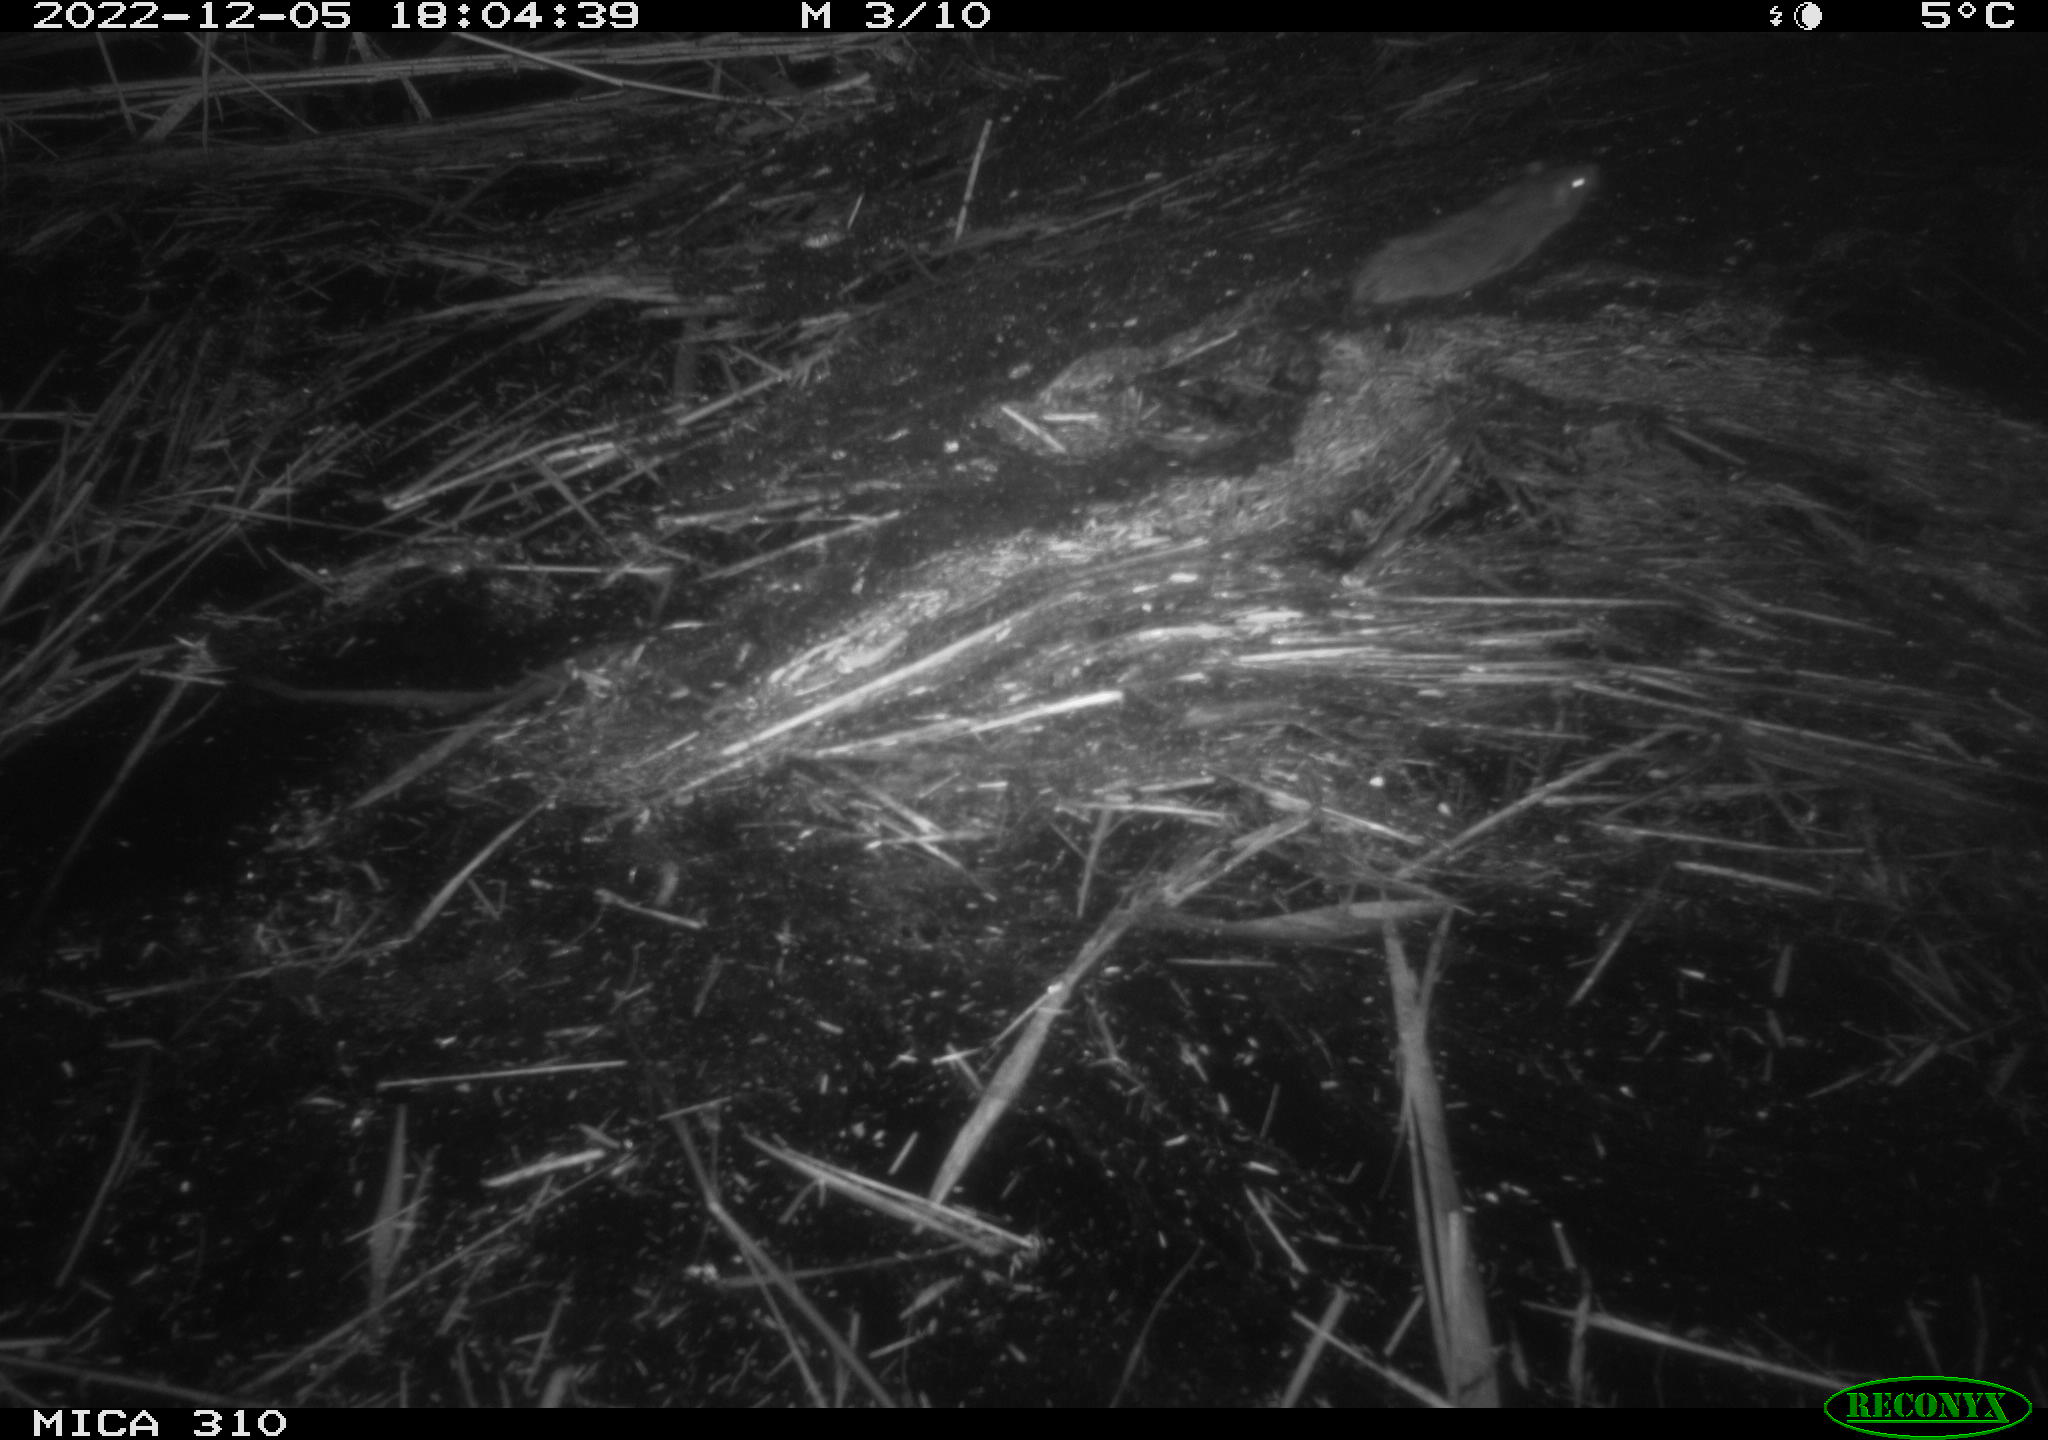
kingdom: Animalia
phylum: Chordata
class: Mammalia
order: Rodentia
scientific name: Rodentia
